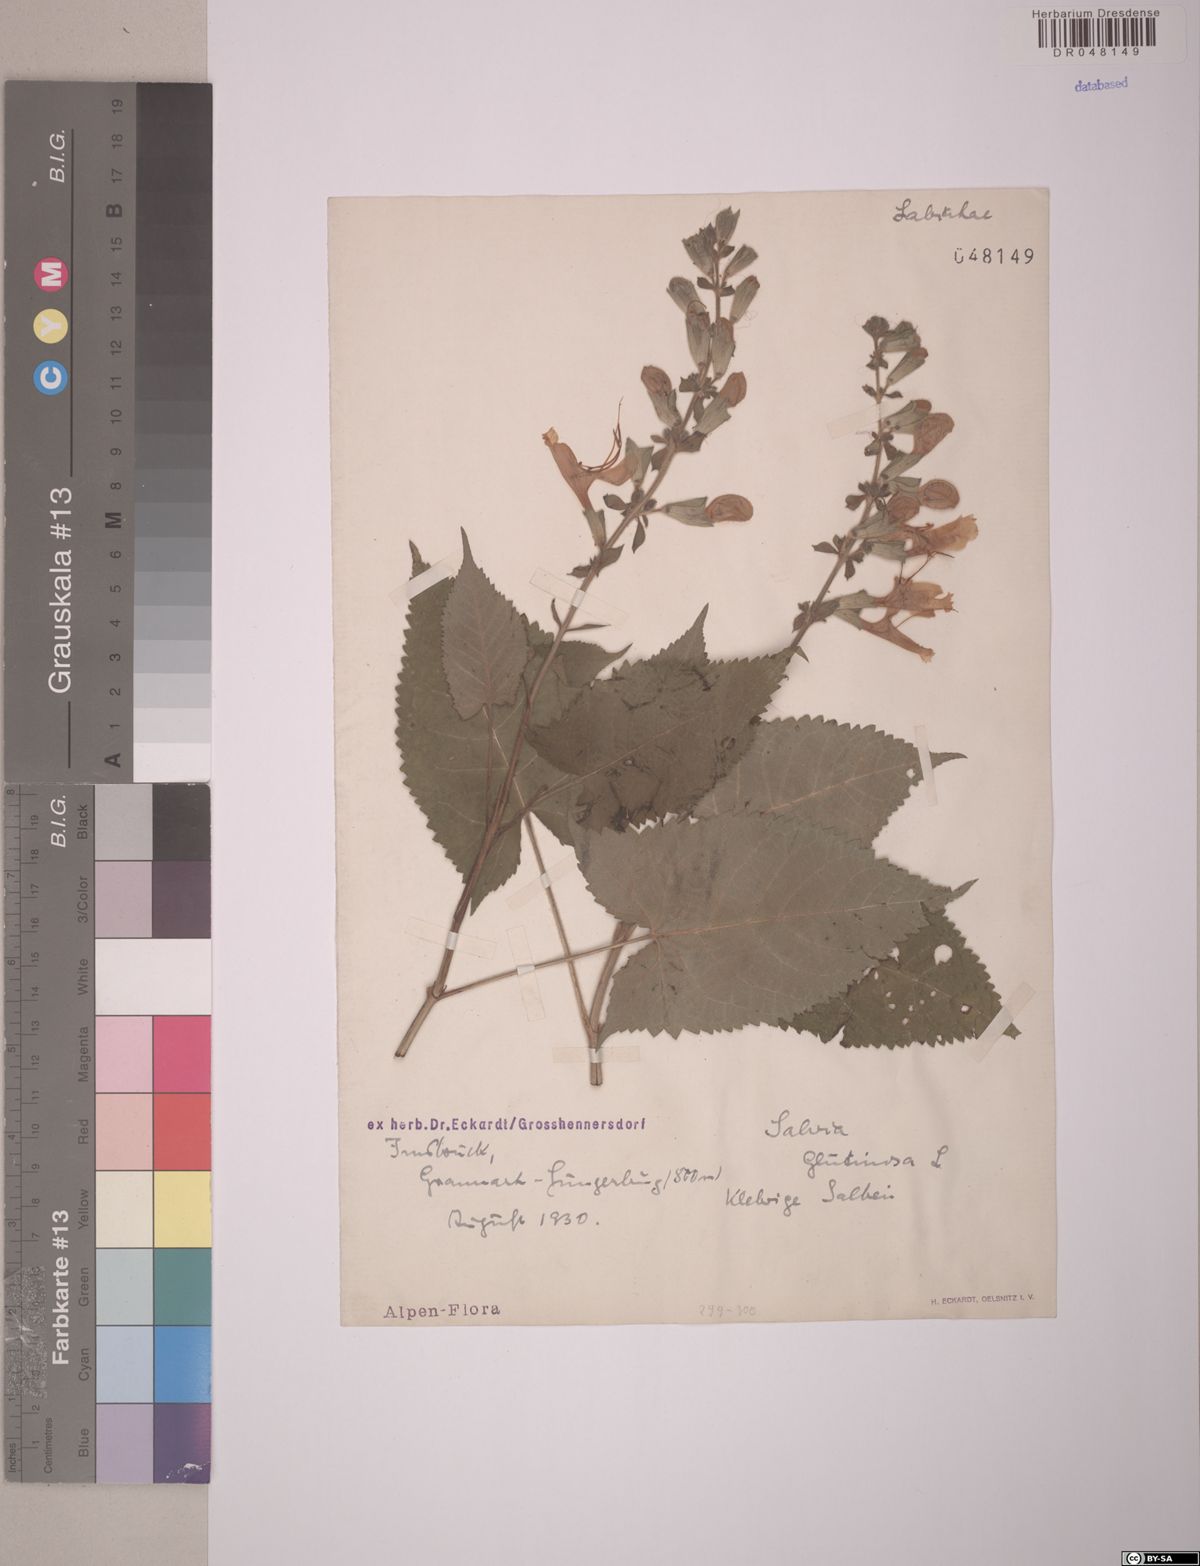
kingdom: Plantae
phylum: Tracheophyta
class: Magnoliopsida
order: Lamiales
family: Lamiaceae
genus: Salvia
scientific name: Salvia glutinosa
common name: Sticky clary
